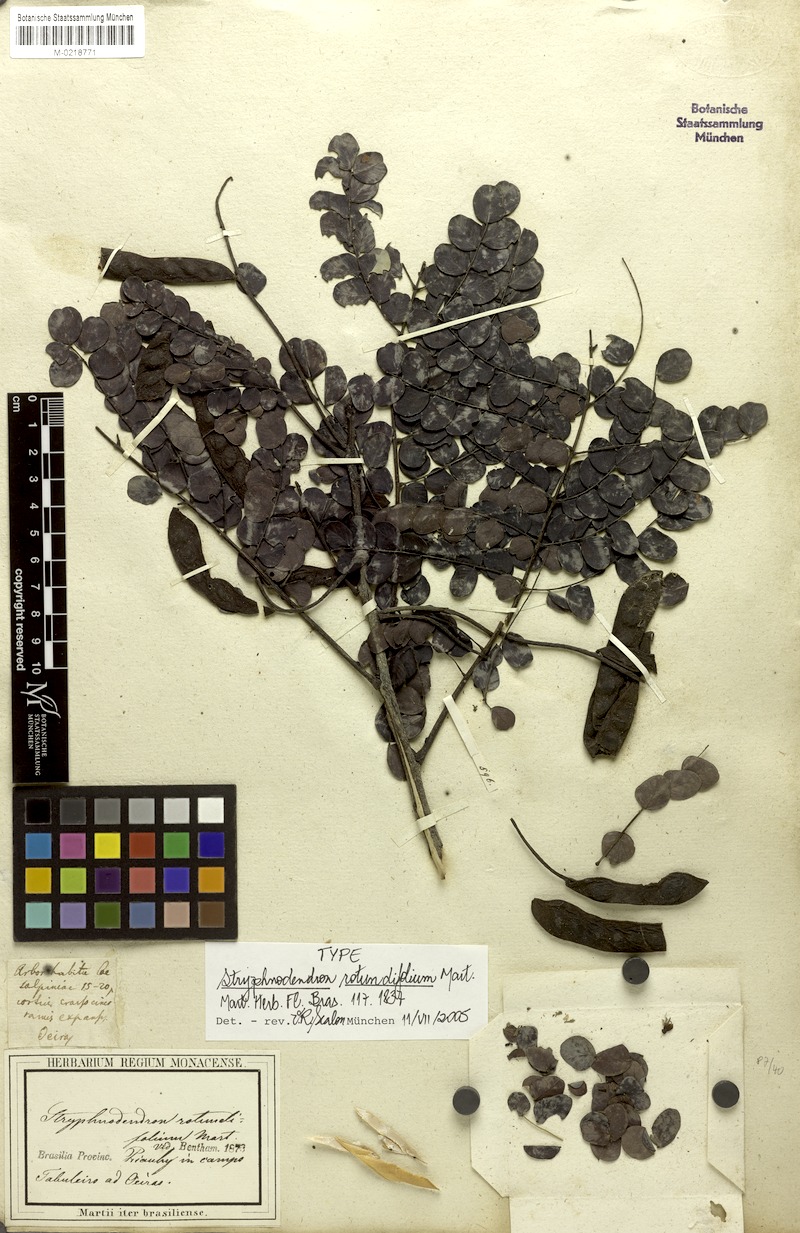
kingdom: Plantae
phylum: Tracheophyta
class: Magnoliopsida
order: Fabales
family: Fabaceae
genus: Stryphnodendron
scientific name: Stryphnodendron rotundifolium
